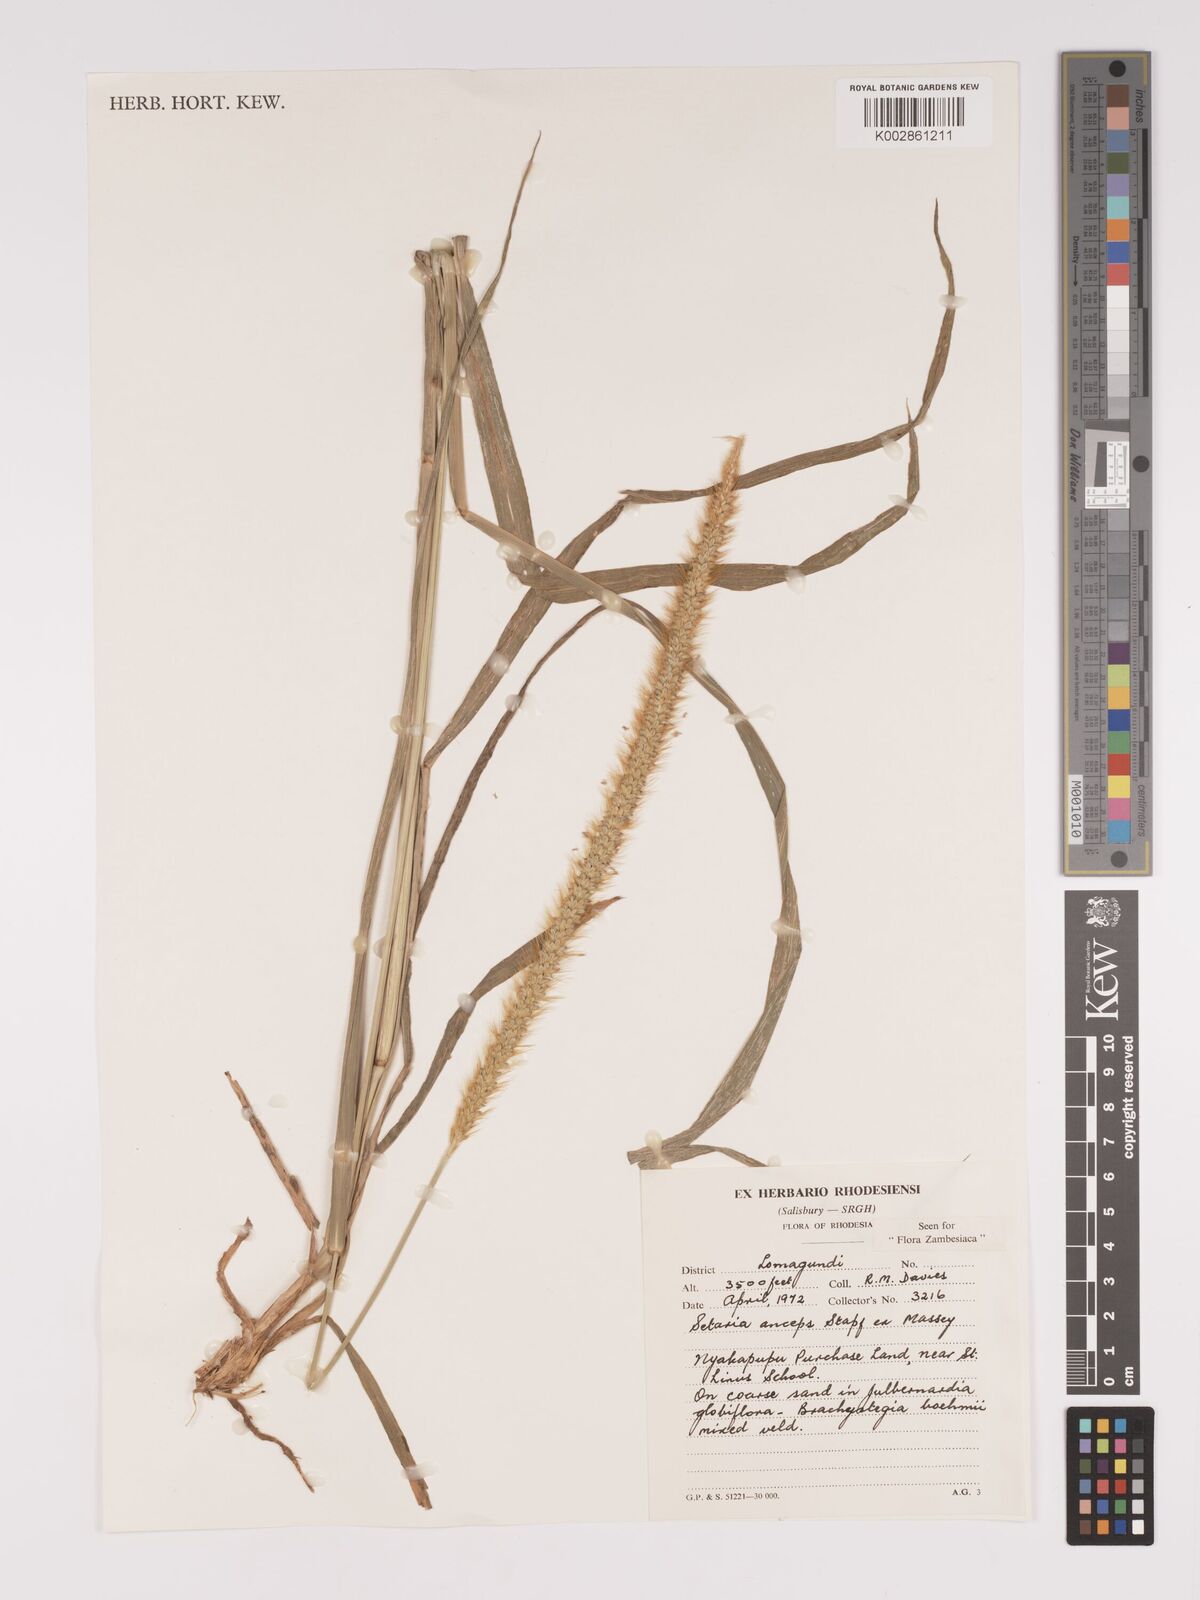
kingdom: Plantae
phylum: Tracheophyta
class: Liliopsida
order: Poales
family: Poaceae
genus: Setaria
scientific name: Setaria sphacelata
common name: African bristlegrass
